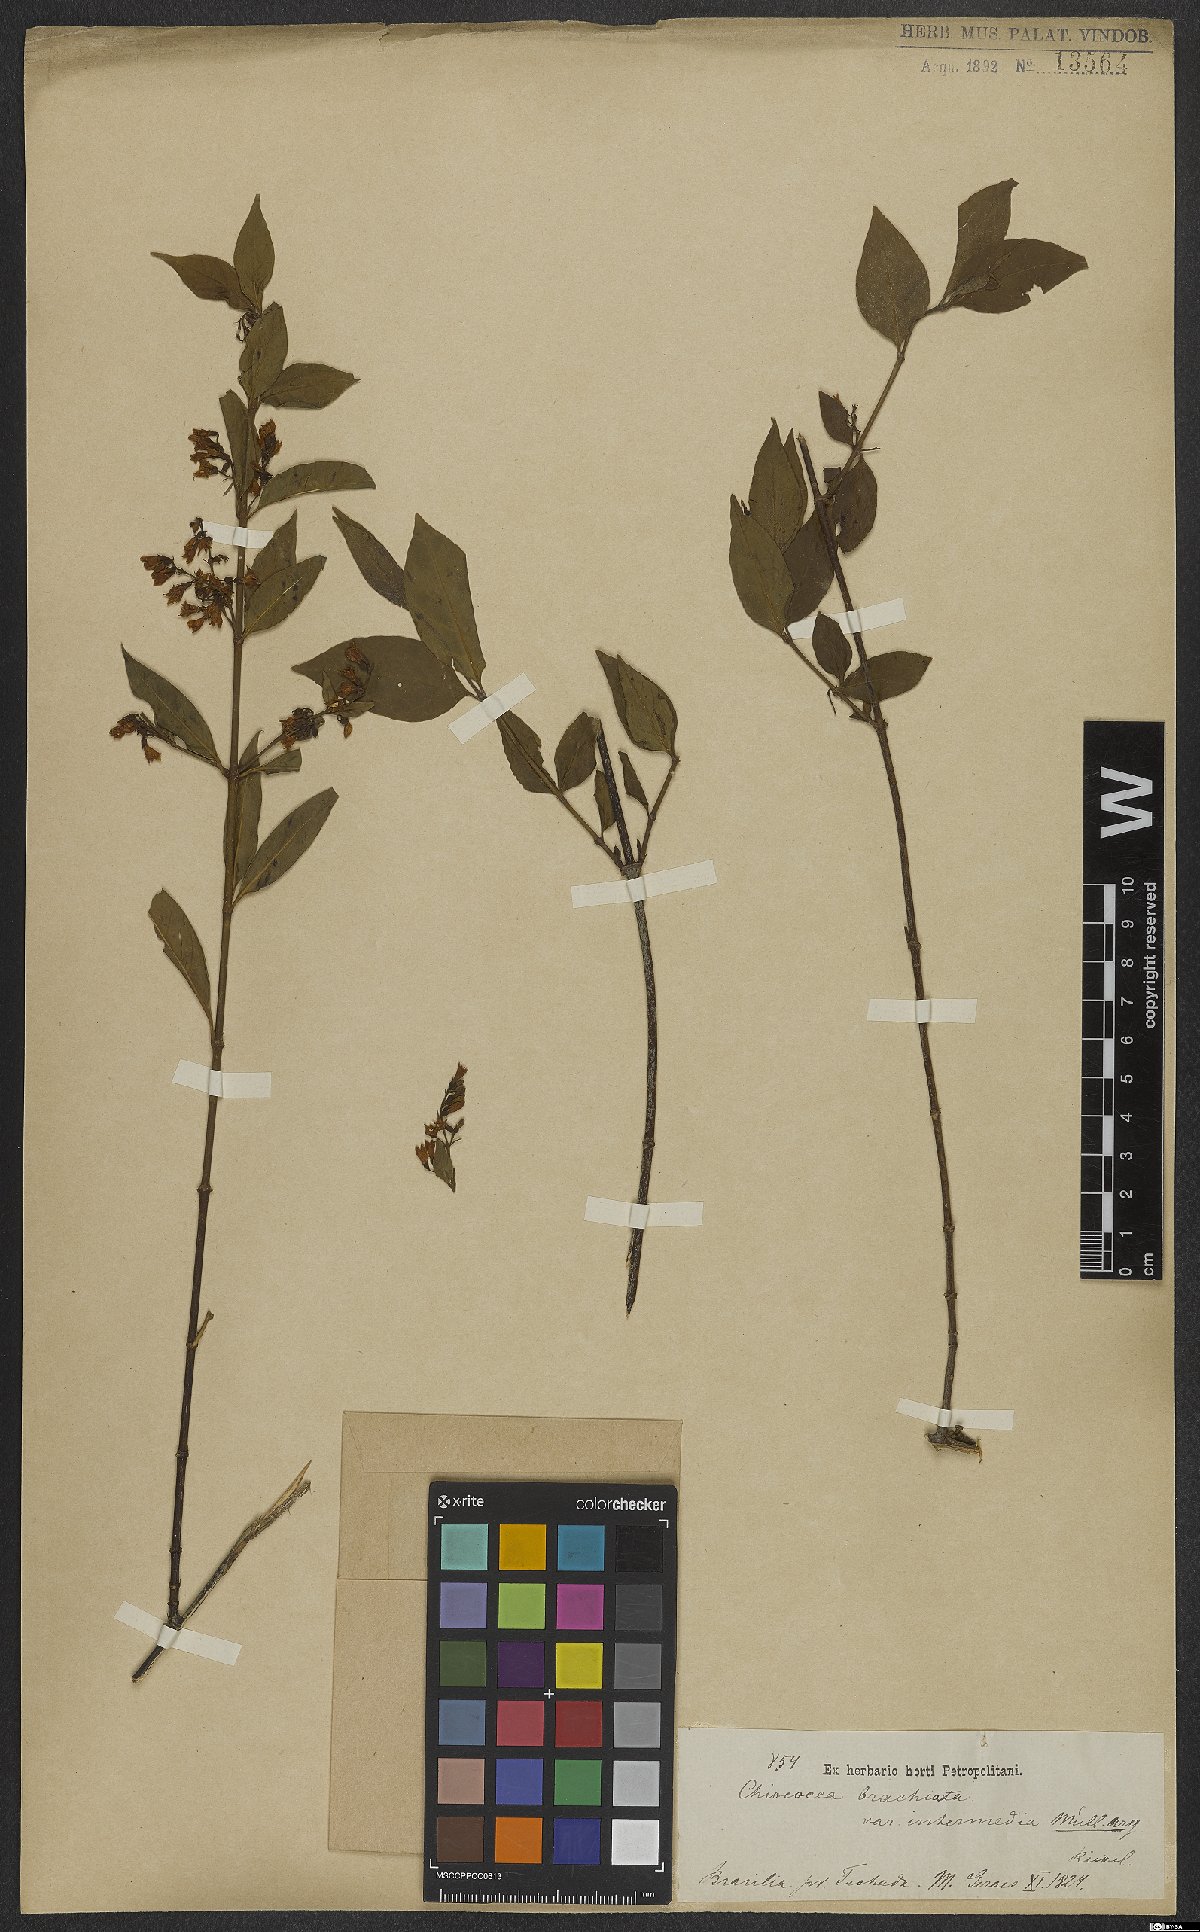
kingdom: Plantae
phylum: Tracheophyta
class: Magnoliopsida
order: Gentianales
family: Rubiaceae
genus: Chiococca
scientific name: Chiococca alba
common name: Snowberry
